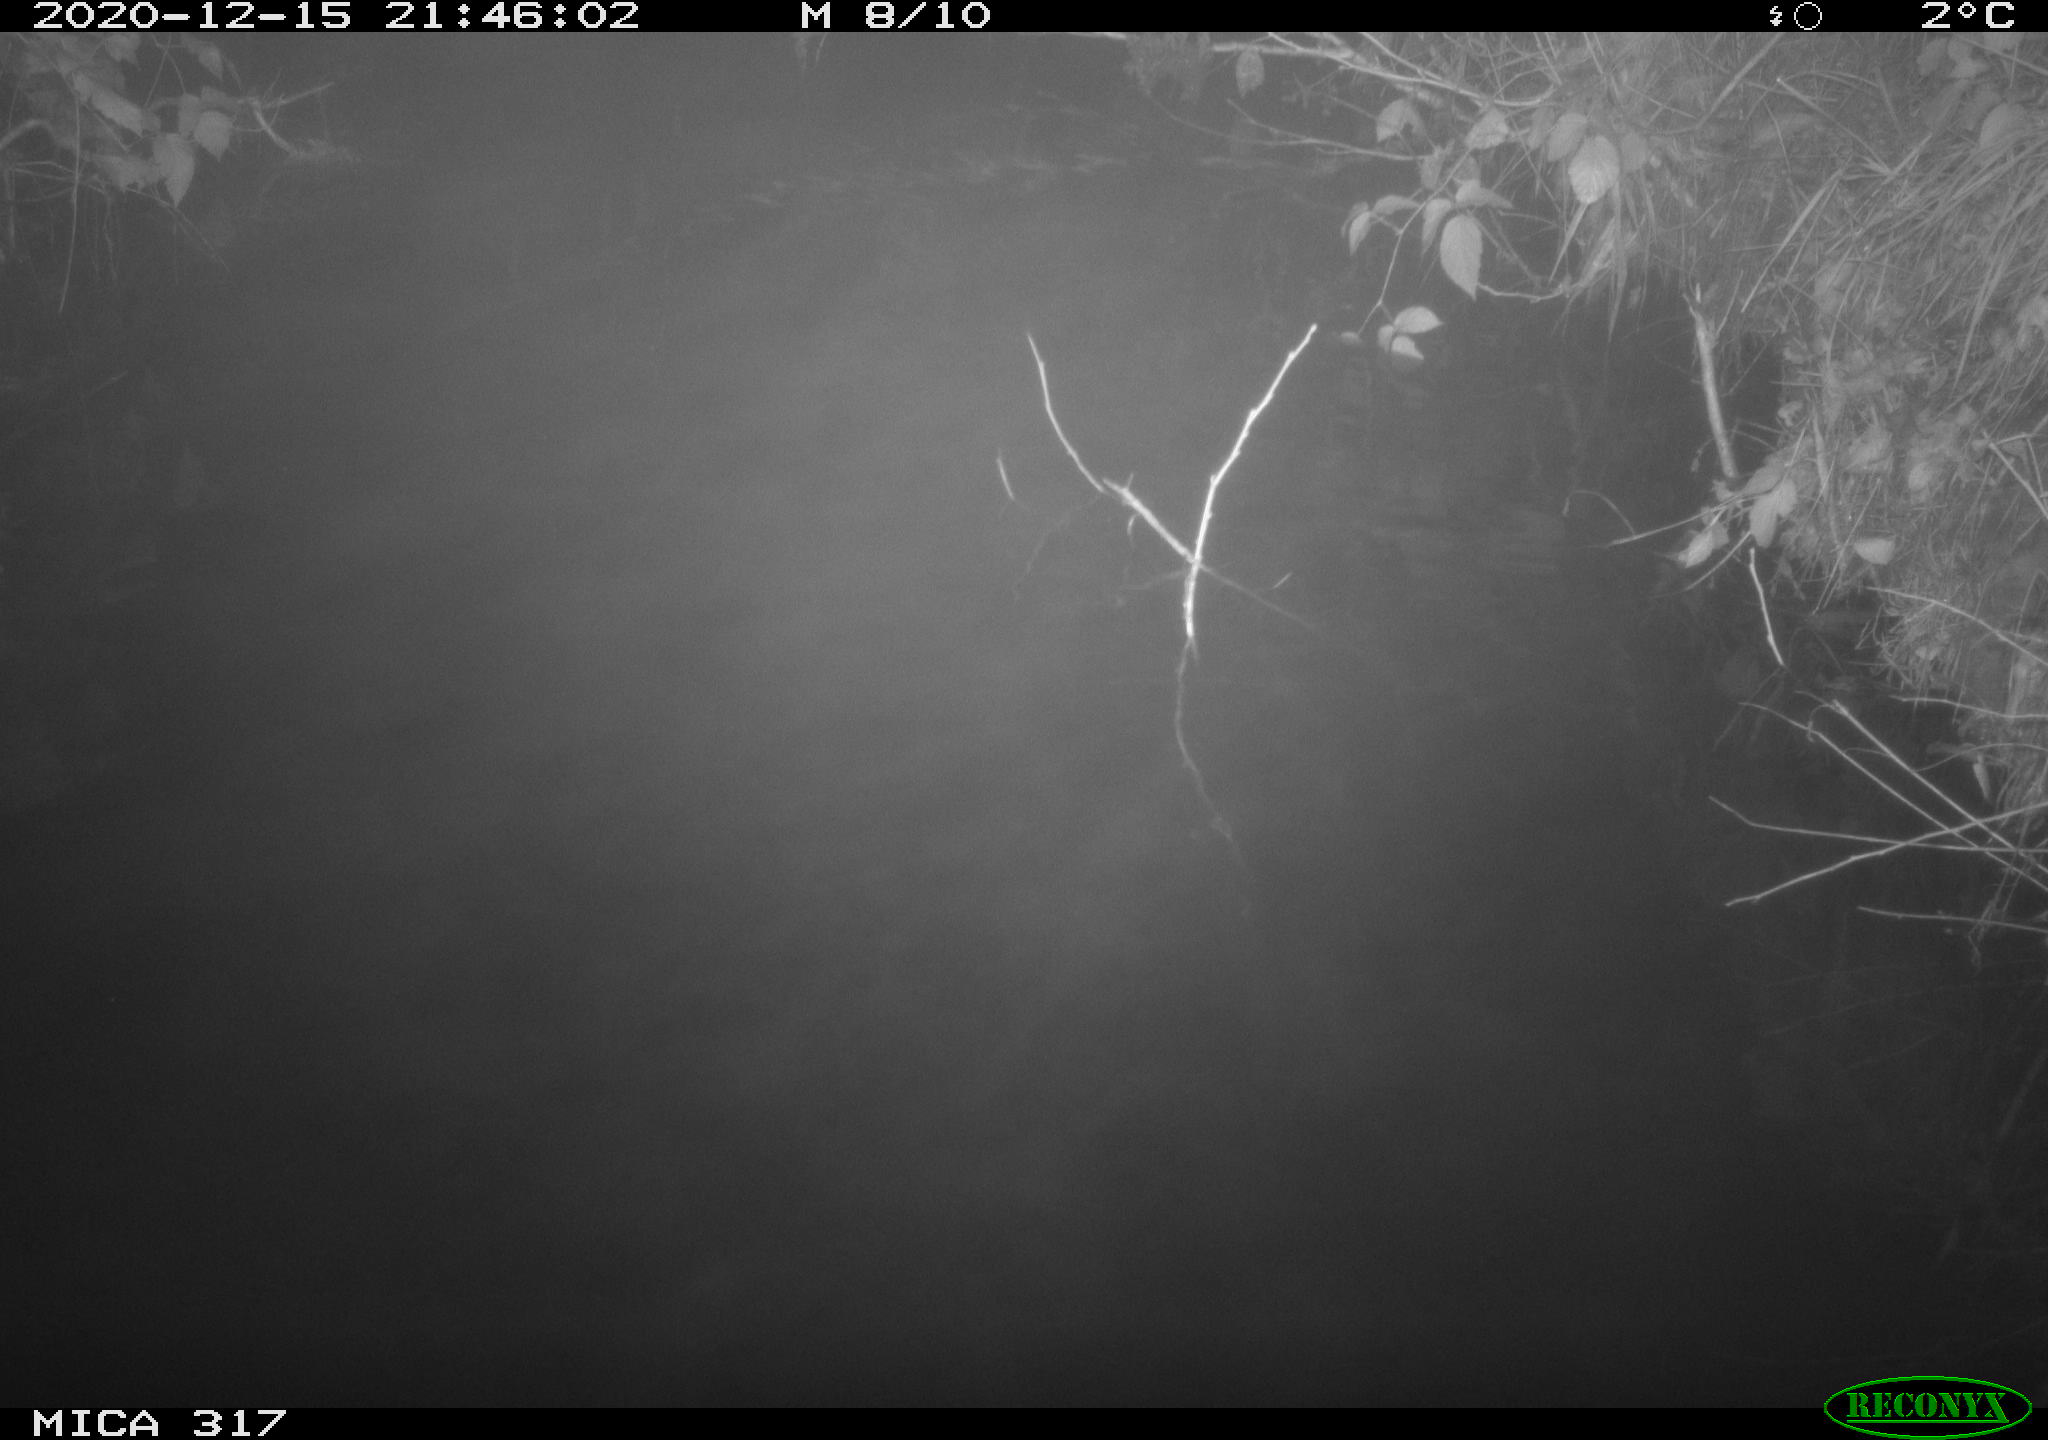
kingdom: Animalia
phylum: Chordata
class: Mammalia
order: Rodentia
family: Muridae
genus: Rattus
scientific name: Rattus norvegicus
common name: Brown rat
